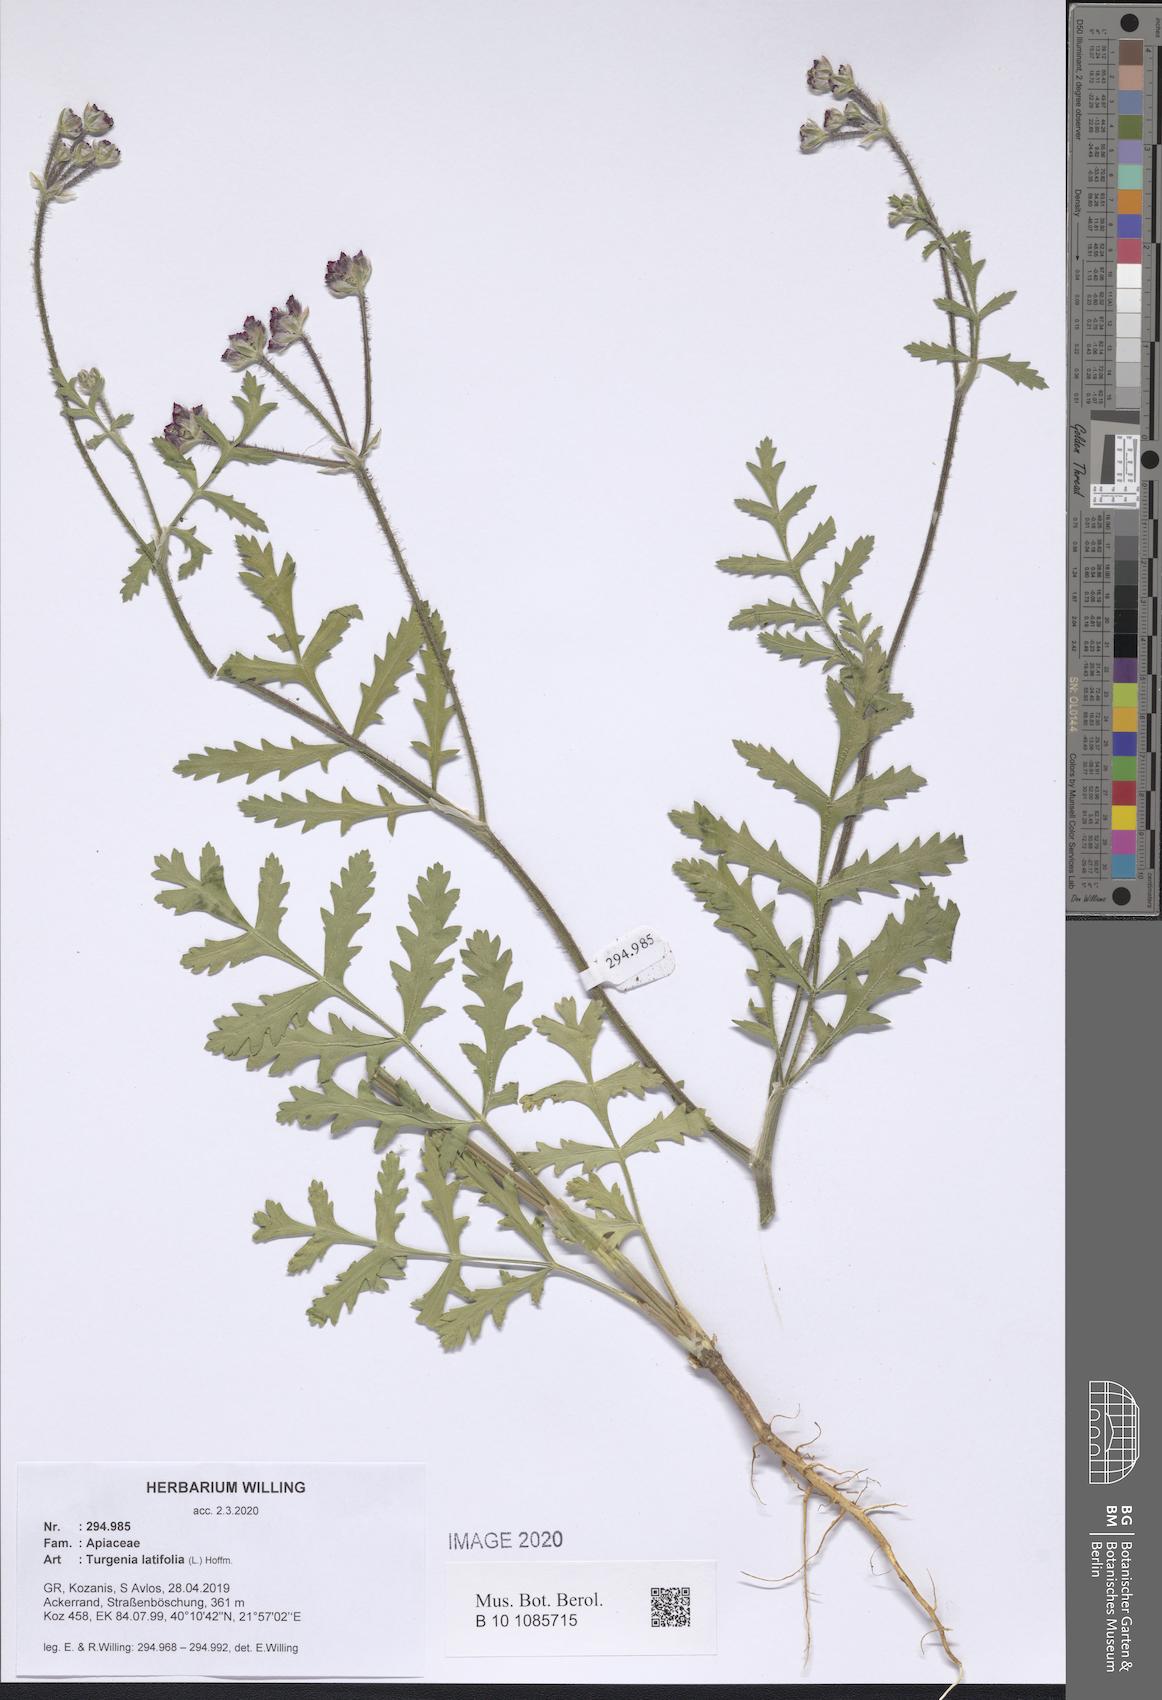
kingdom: Plantae
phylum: Tracheophyta
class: Magnoliopsida
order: Apiales
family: Apiaceae
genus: Turgenia
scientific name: Turgenia latifolia
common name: Greater bur-parsley
